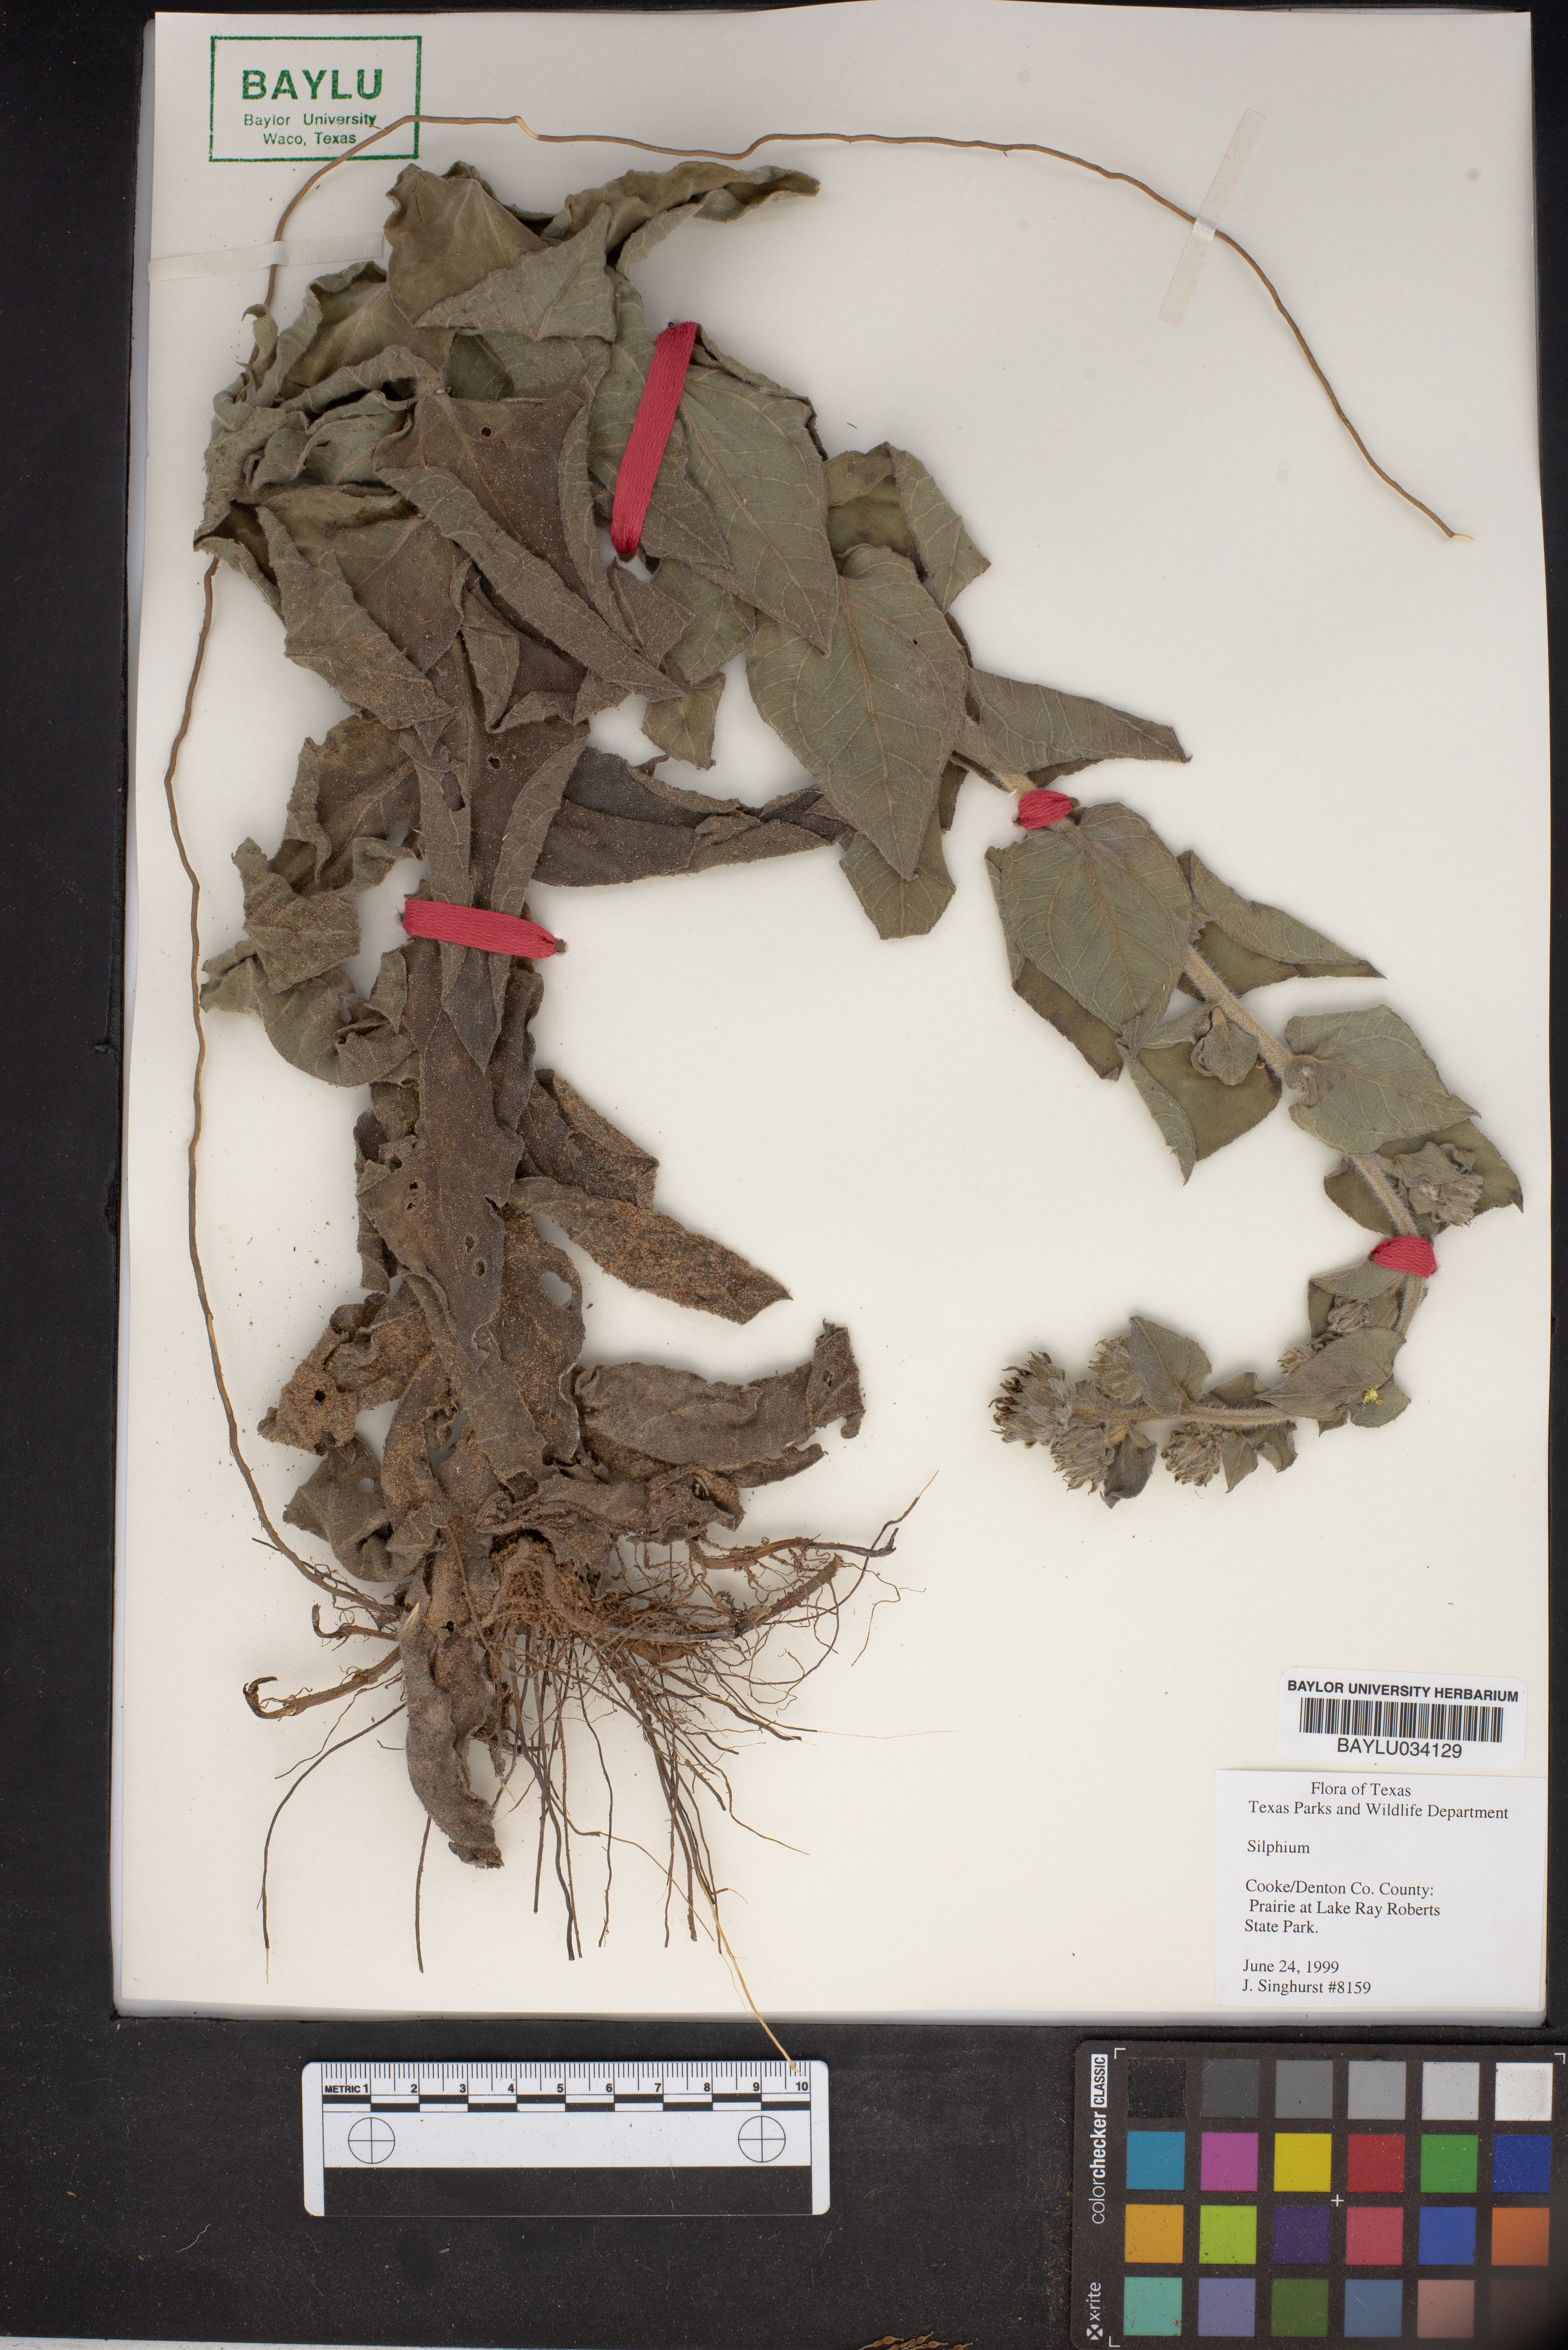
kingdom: Plantae
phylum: Tracheophyta
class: Magnoliopsida
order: Asterales
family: Asteraceae
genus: Silphium
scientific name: Silphium
